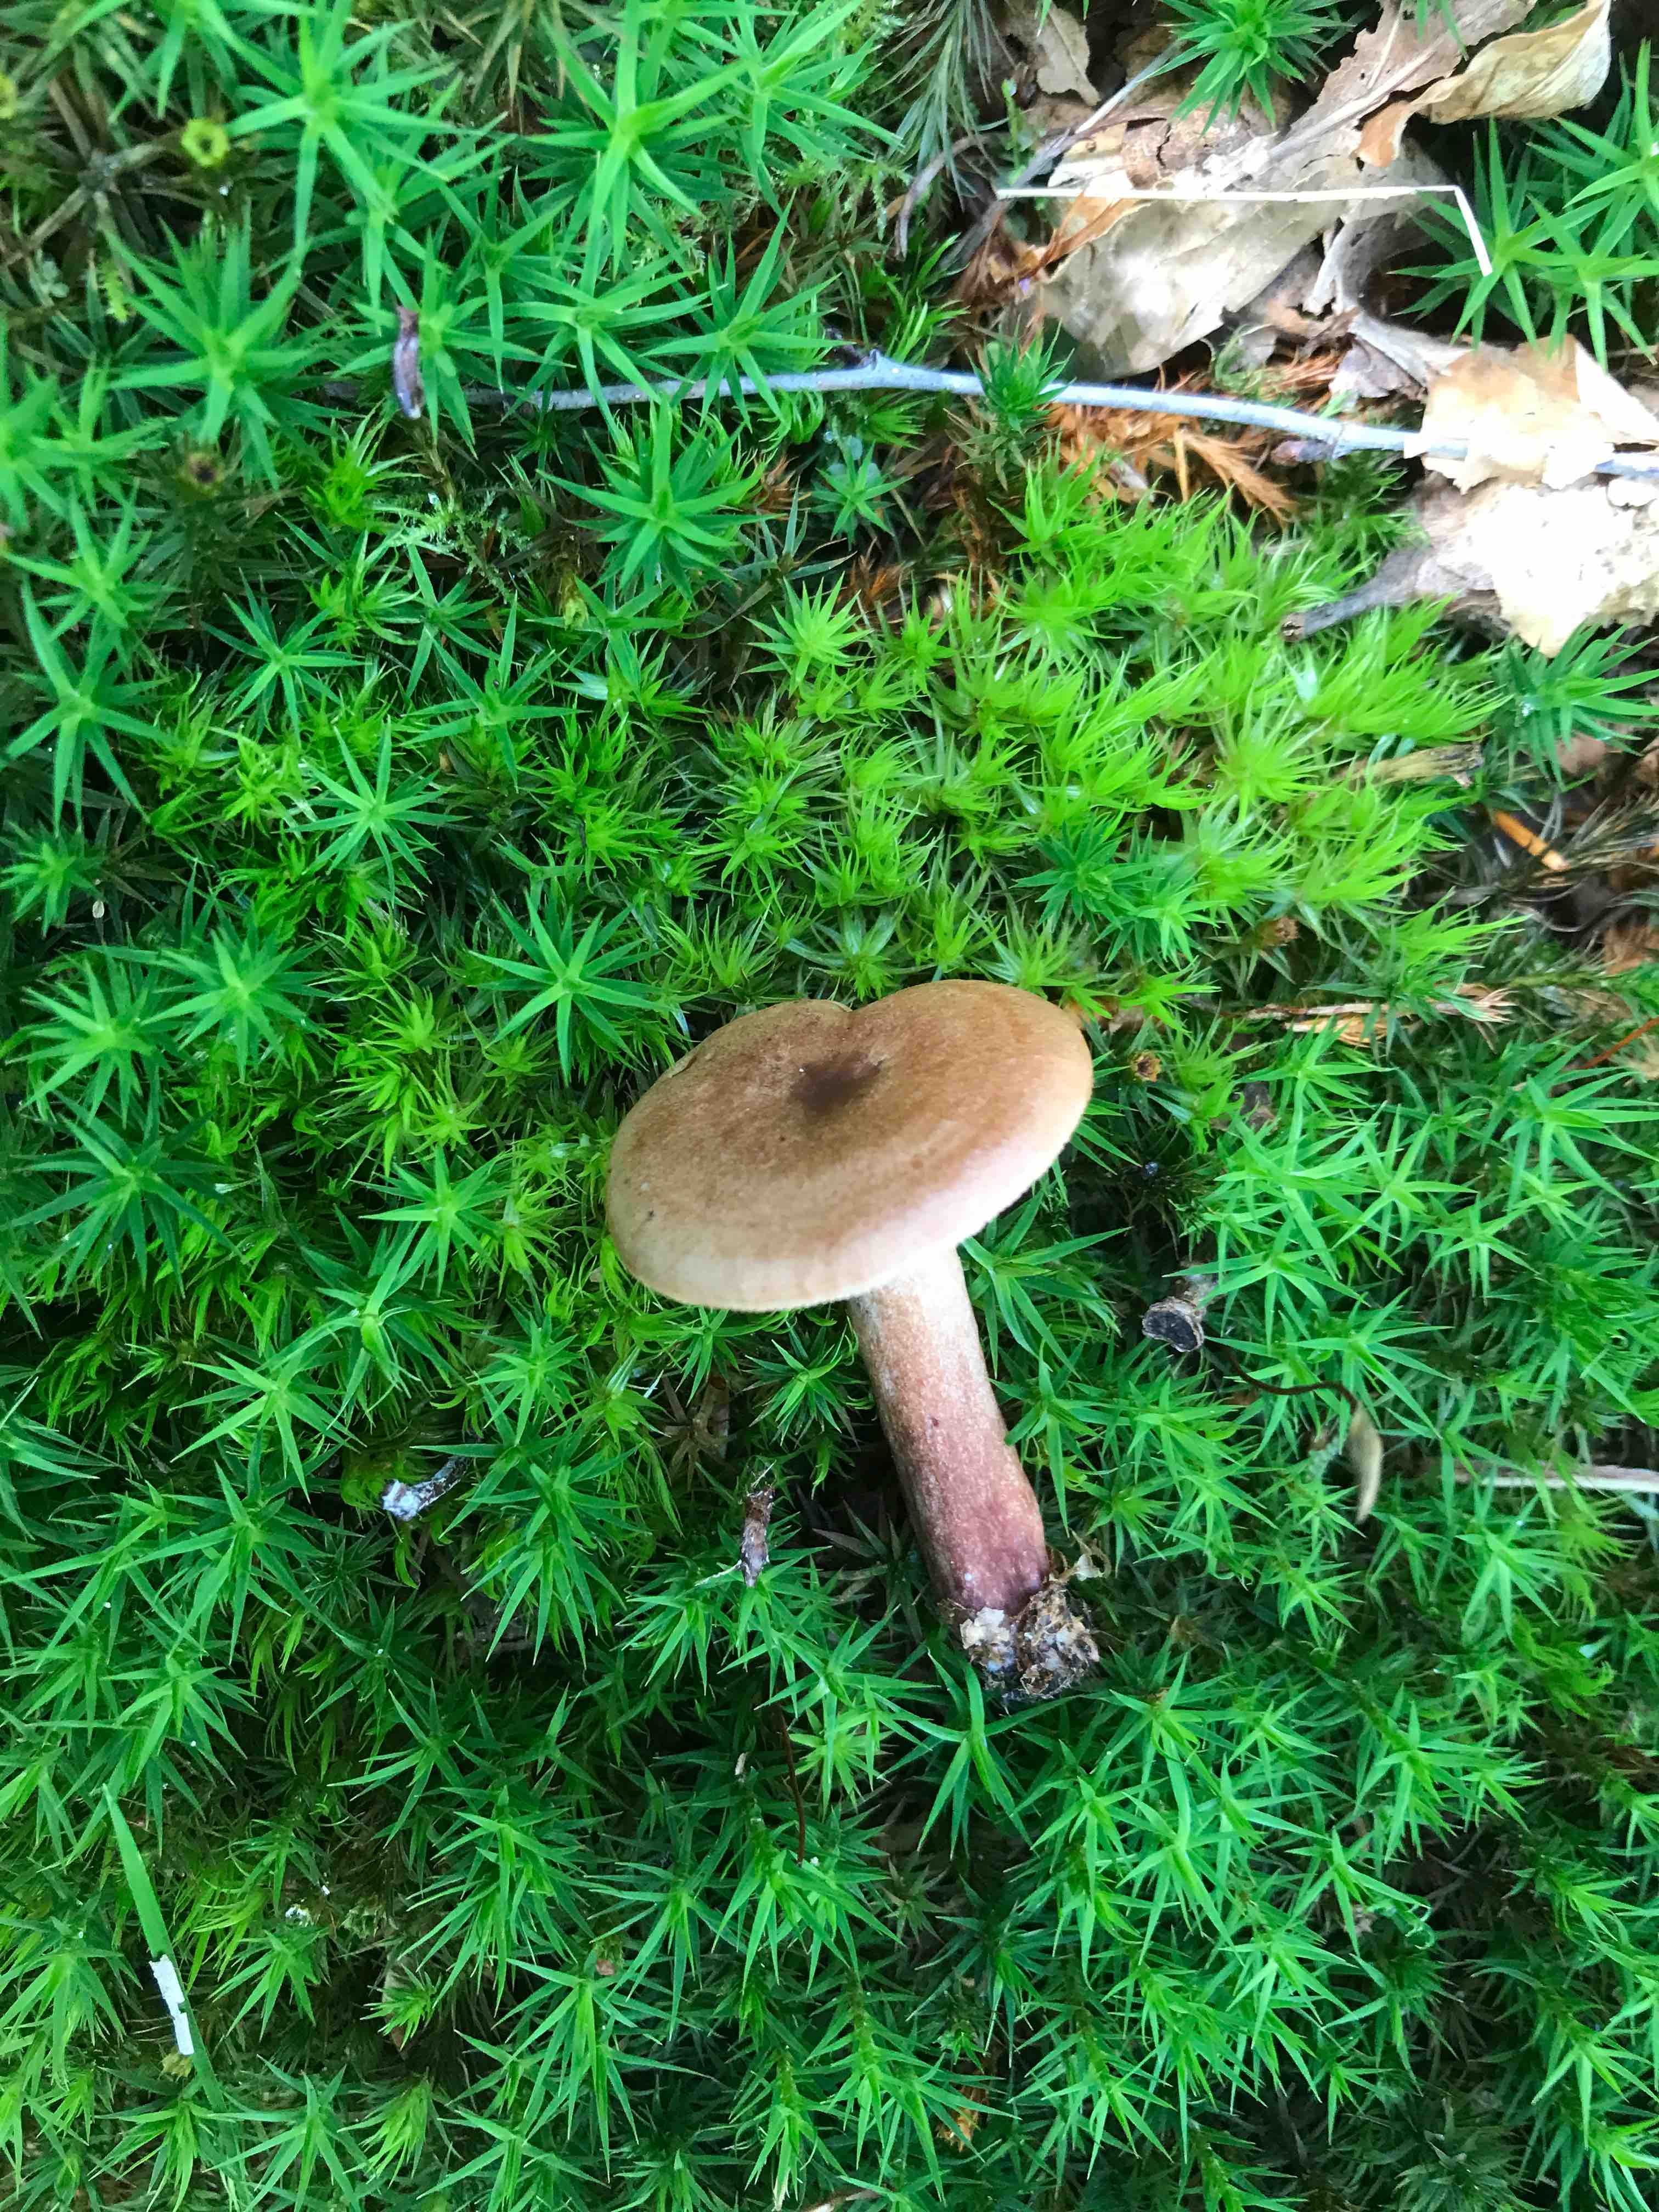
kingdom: Fungi
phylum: Basidiomycota
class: Agaricomycetes
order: Russulales
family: Russulaceae
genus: Lactarius
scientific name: Lactarius quietus
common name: ege-mælkehat
